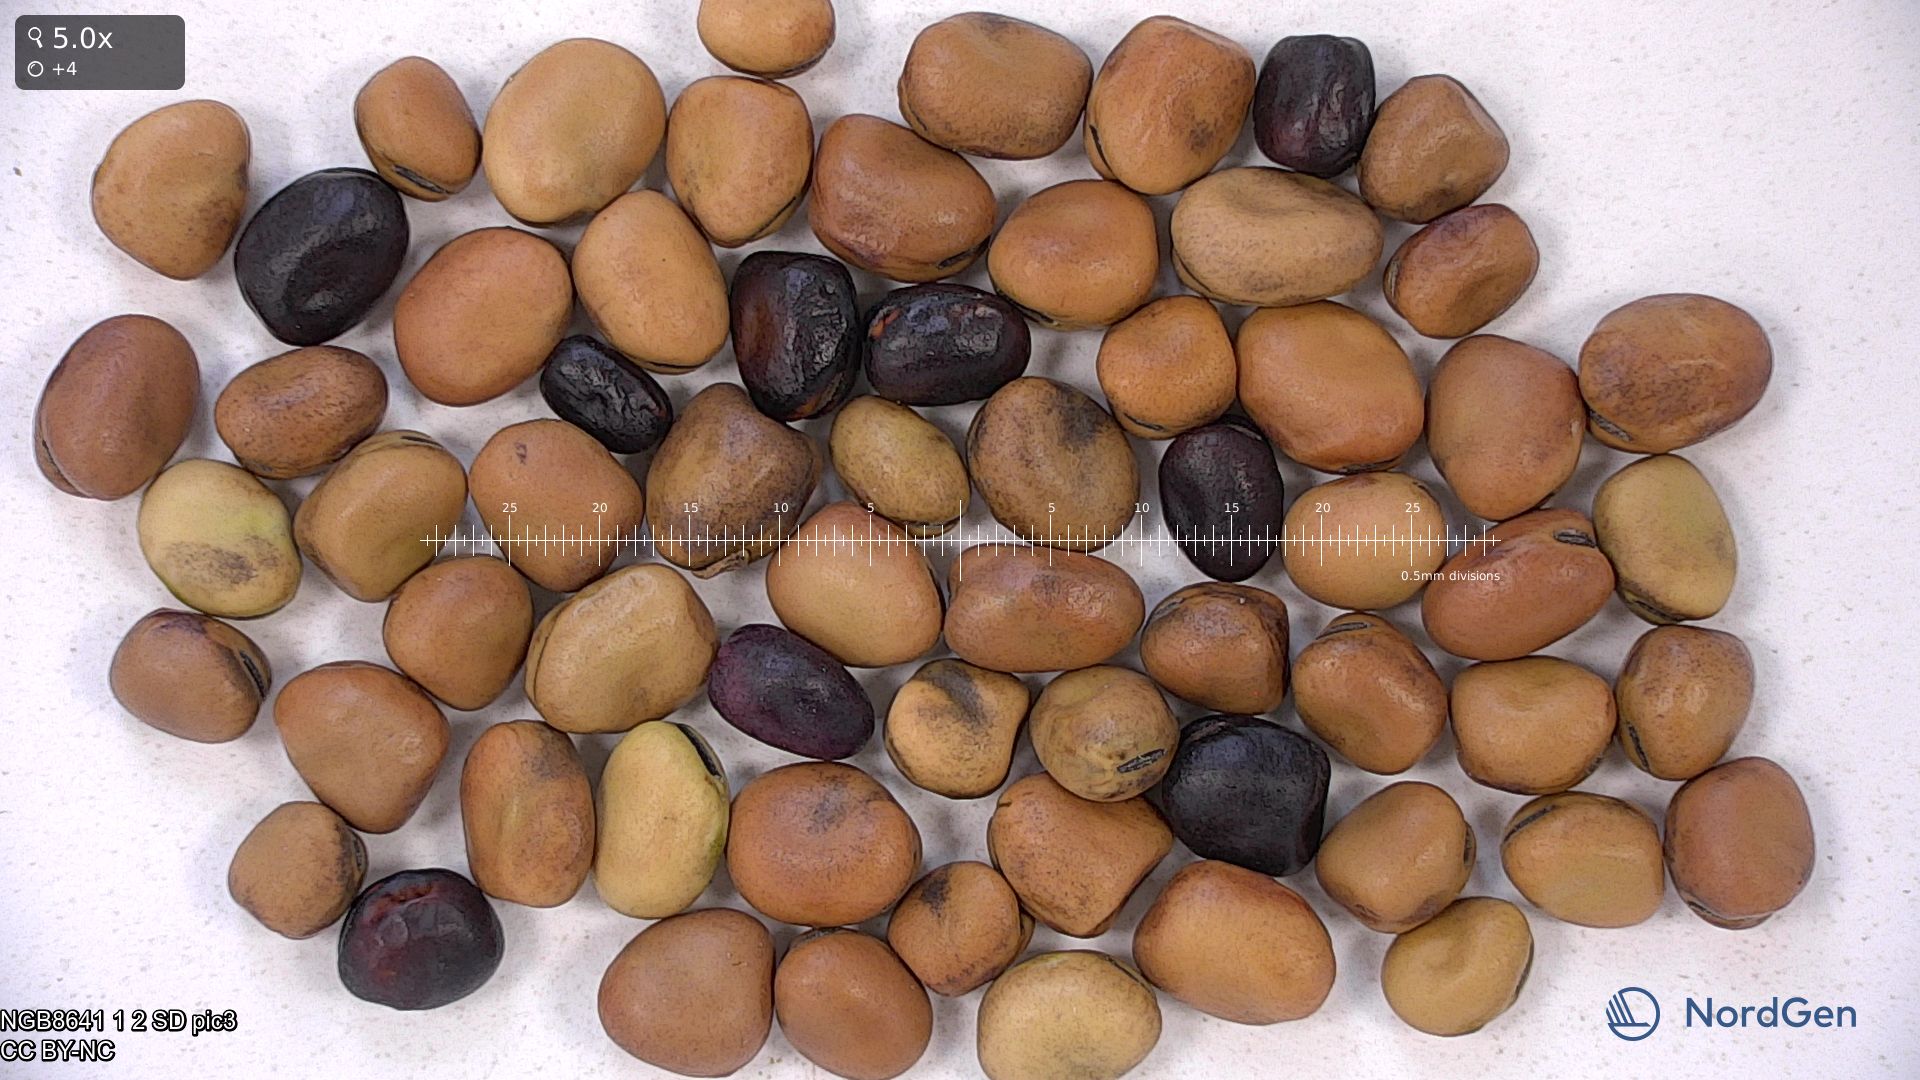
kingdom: Plantae
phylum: Tracheophyta
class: Magnoliopsida
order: Fabales
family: Fabaceae
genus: Vicia
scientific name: Vicia faba
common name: Broad bean
